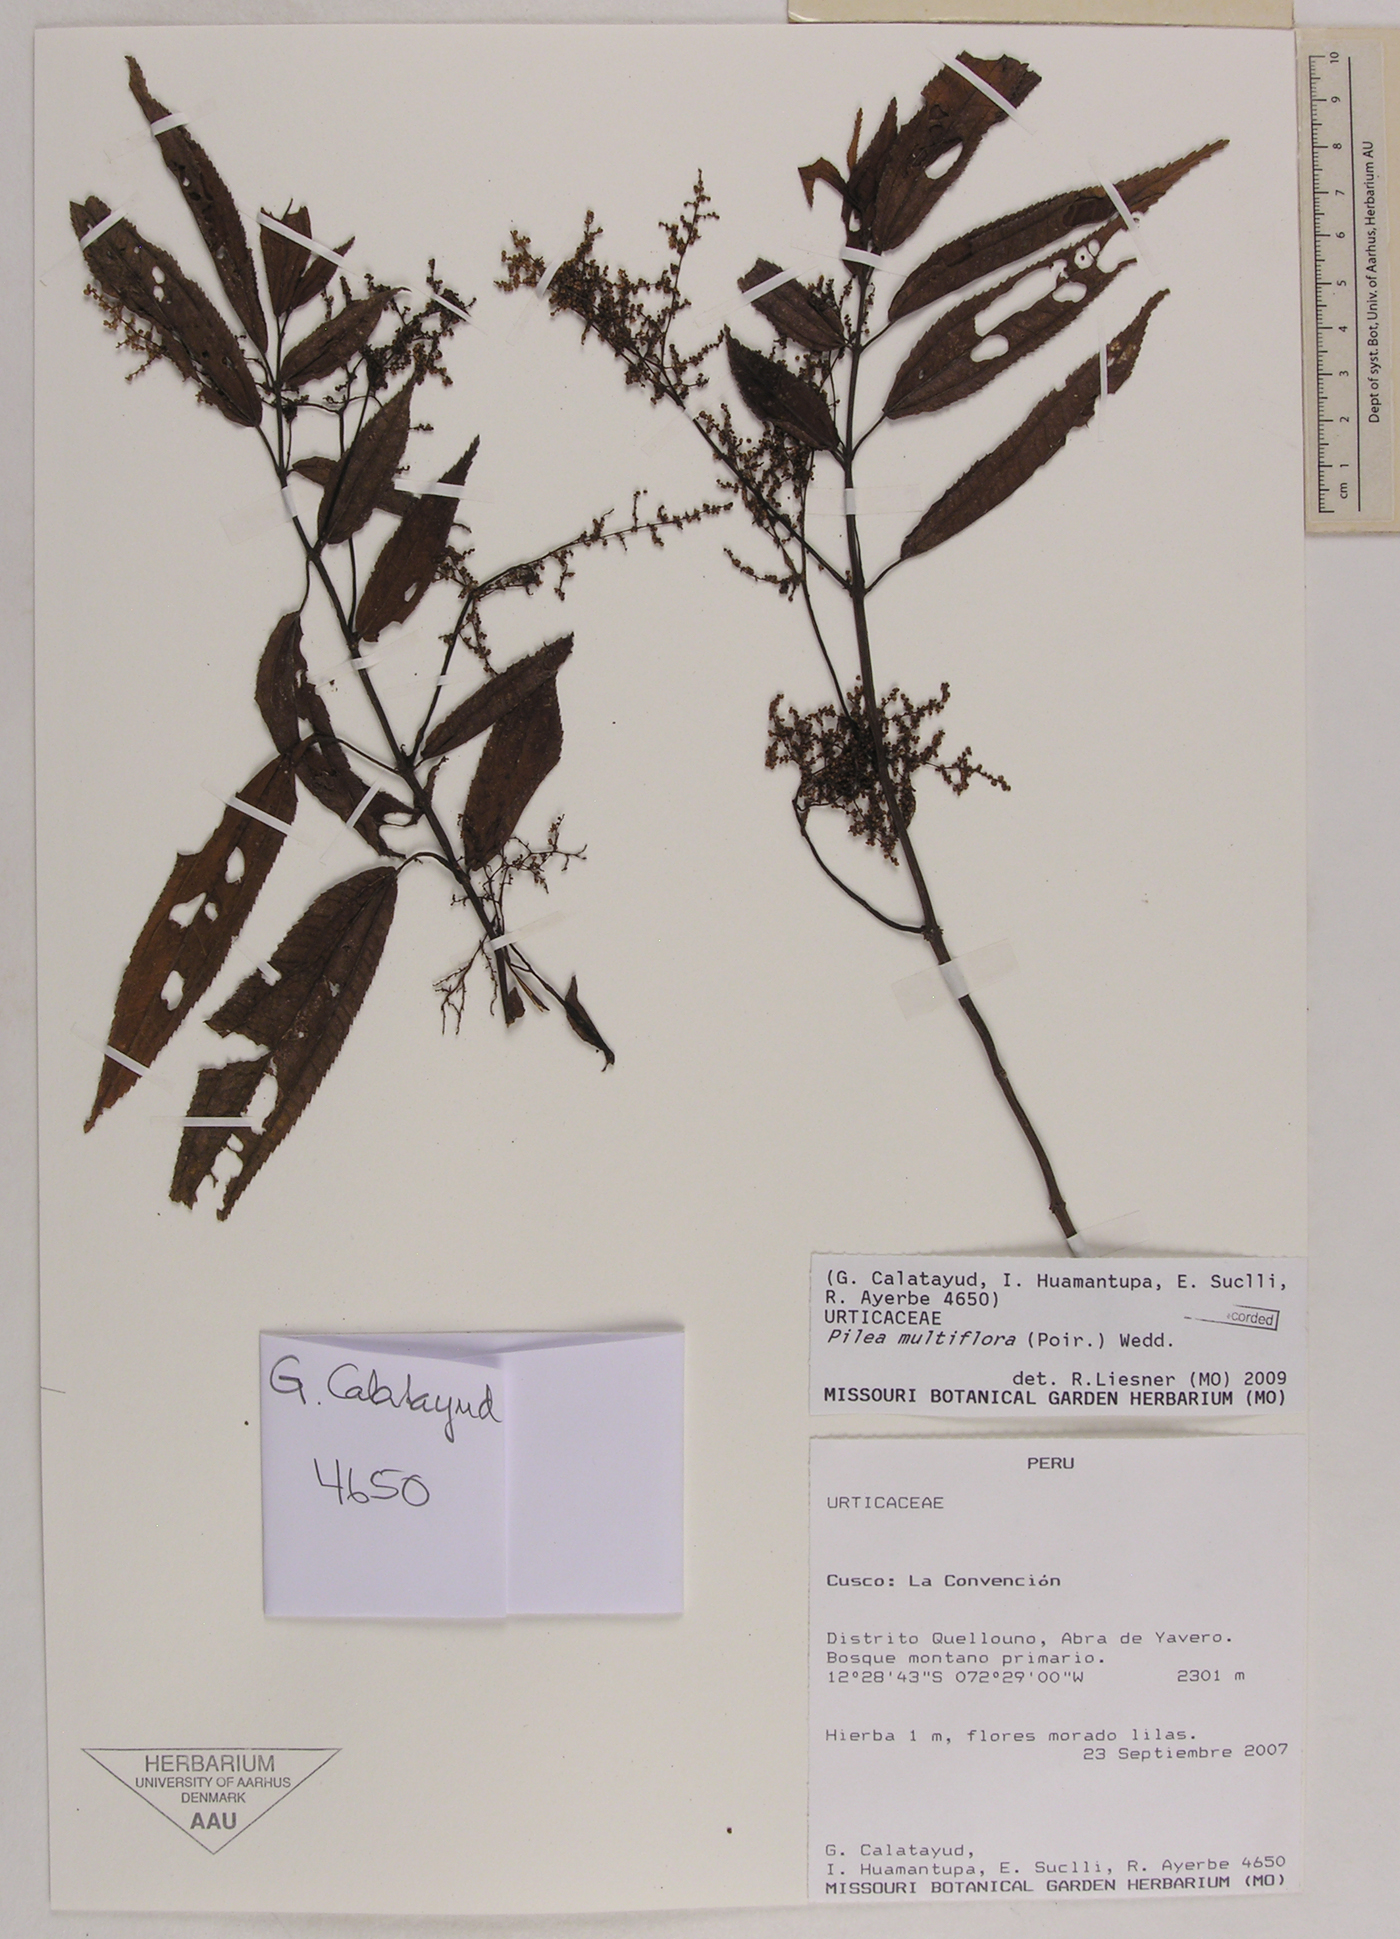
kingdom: Plantae
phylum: Tracheophyta
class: Magnoliopsida
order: Rosales
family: Urticaceae
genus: Pilea
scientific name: Pilea multiflora
